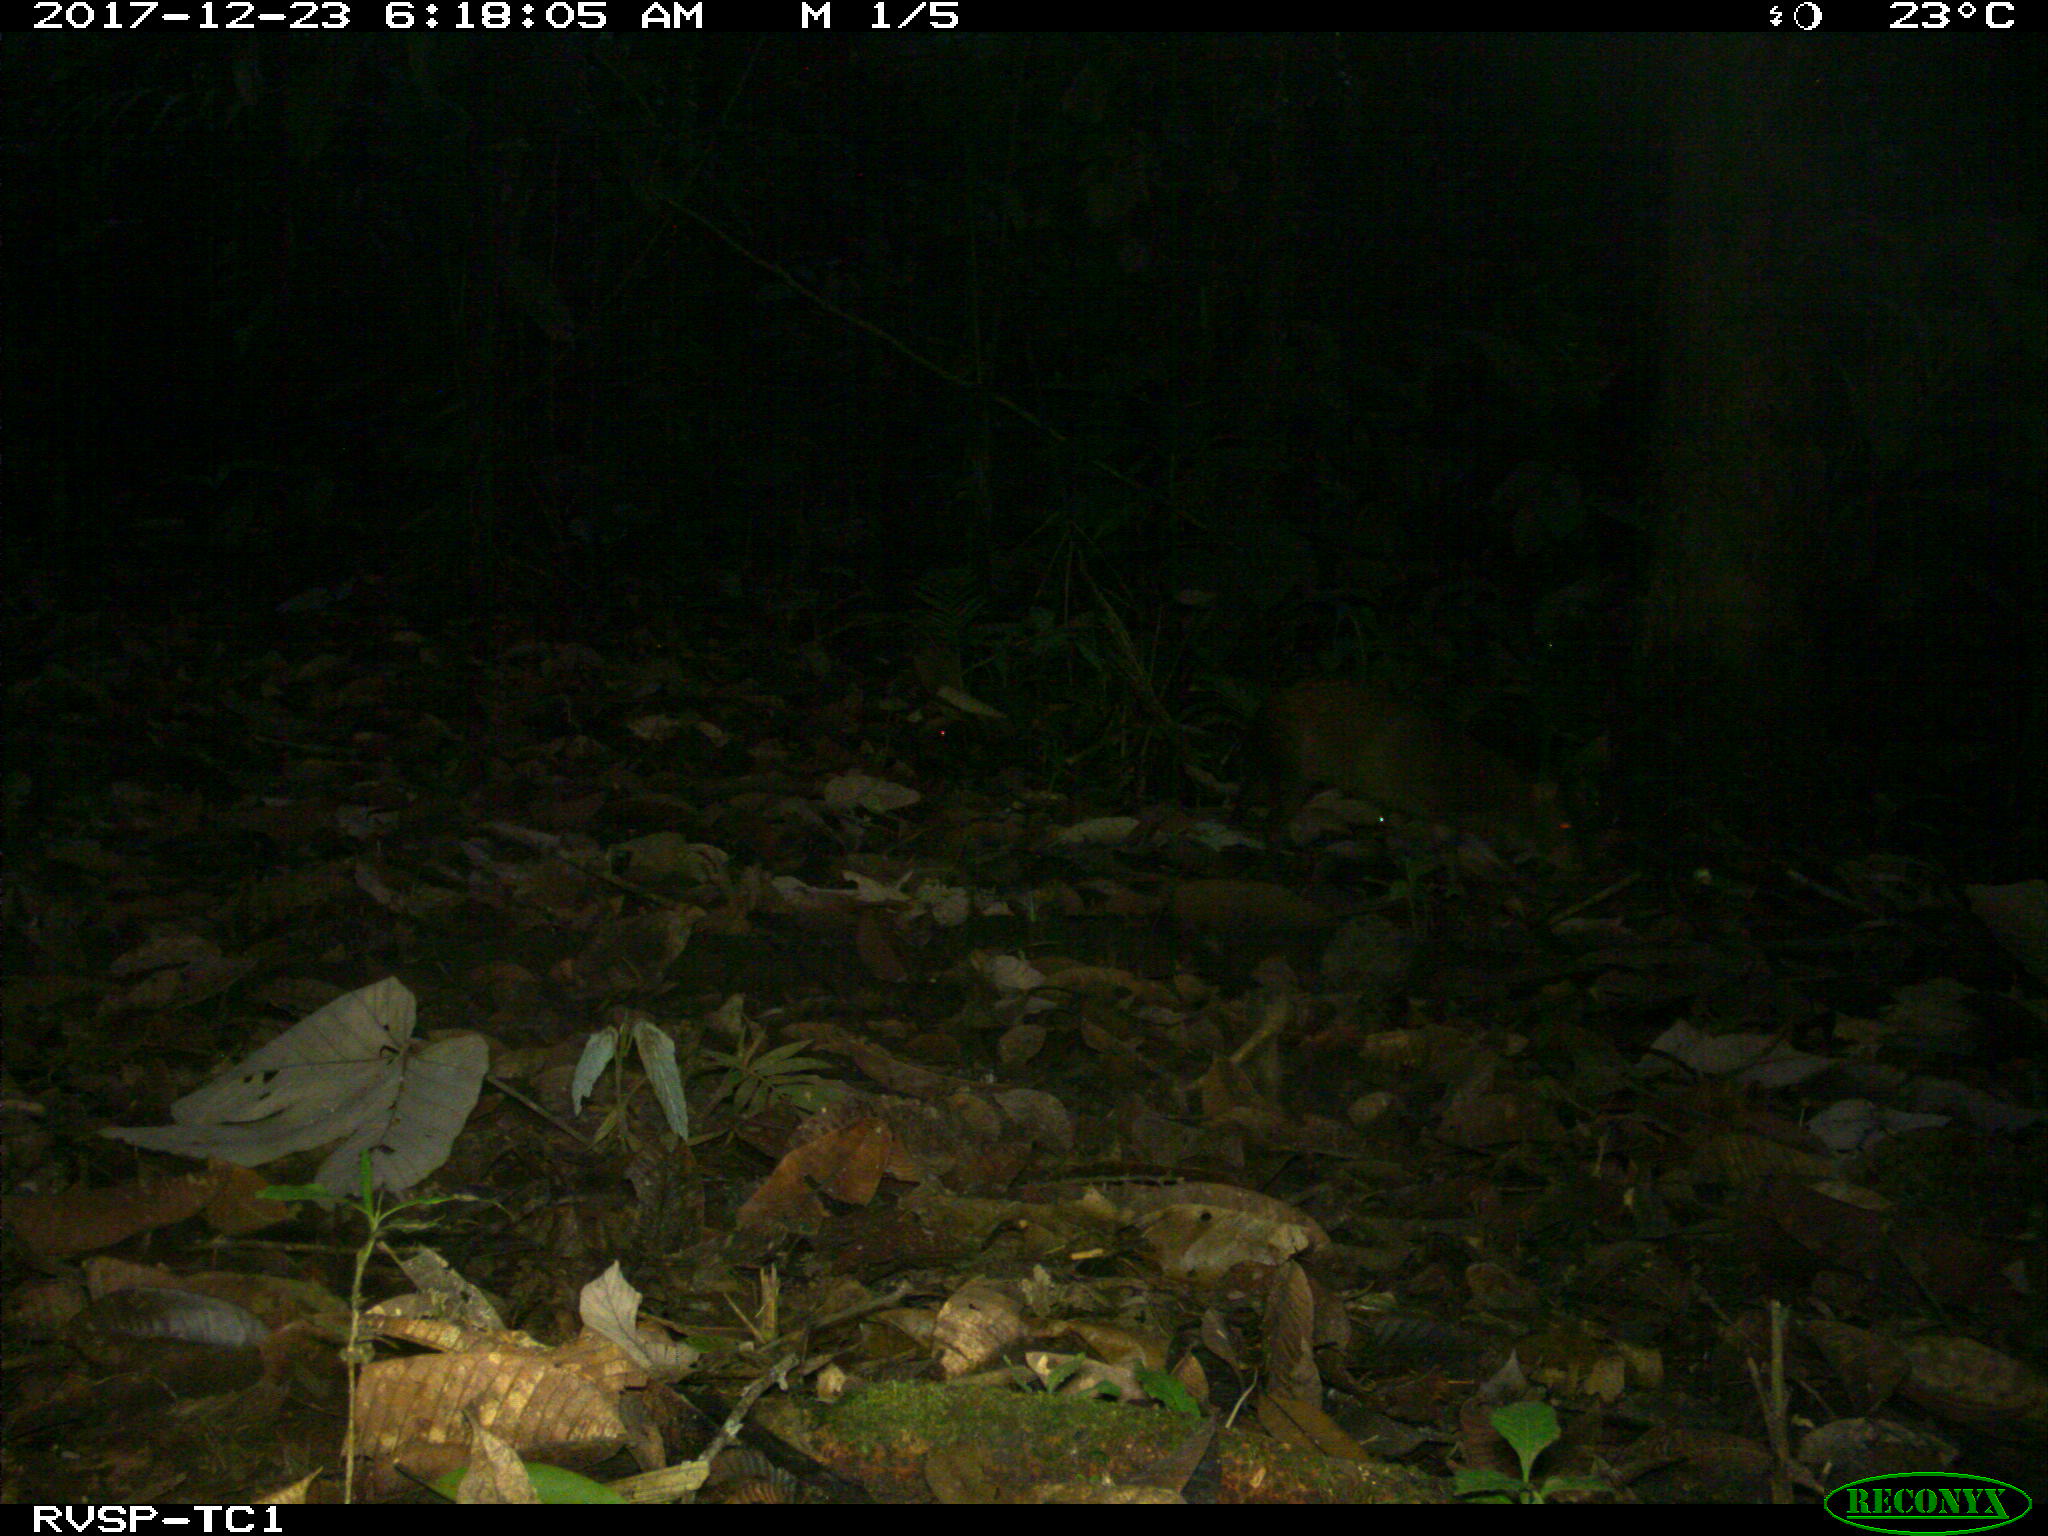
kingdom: Animalia
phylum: Chordata
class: Mammalia
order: Rodentia
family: Dasyproctidae
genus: Dasyprocta
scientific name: Dasyprocta punctata
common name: Central american agouti
